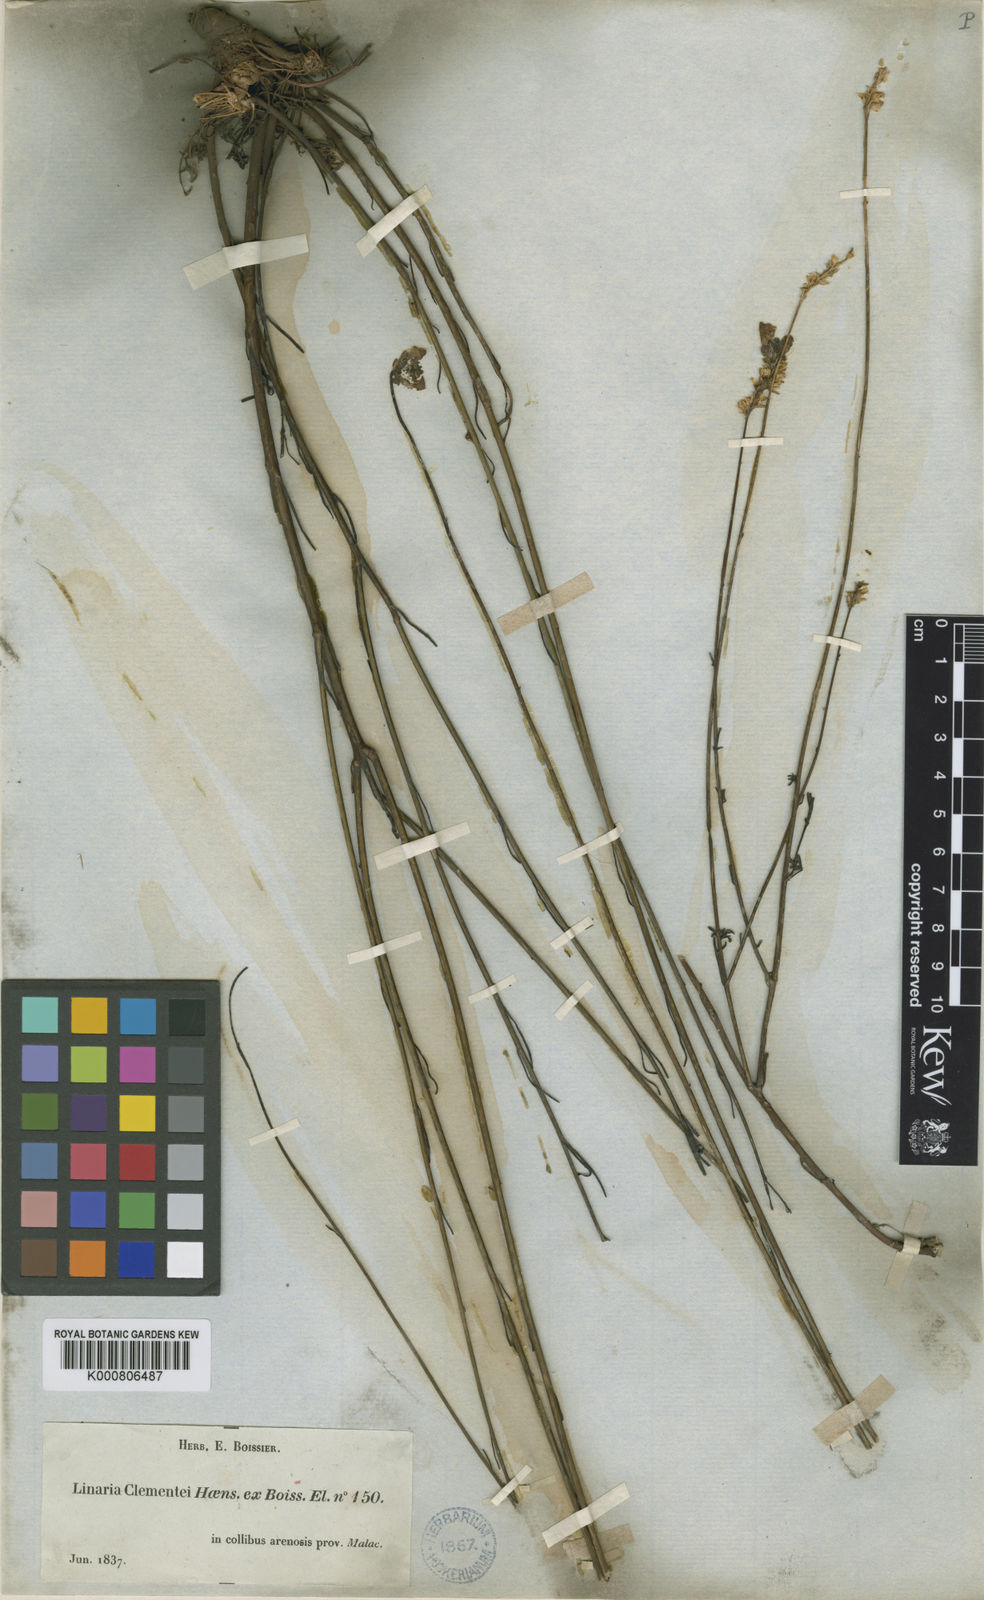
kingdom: Plantae
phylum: Tracheophyta
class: Magnoliopsida
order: Lamiales
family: Plantaginaceae
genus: Linaria
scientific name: Linaria clementei
